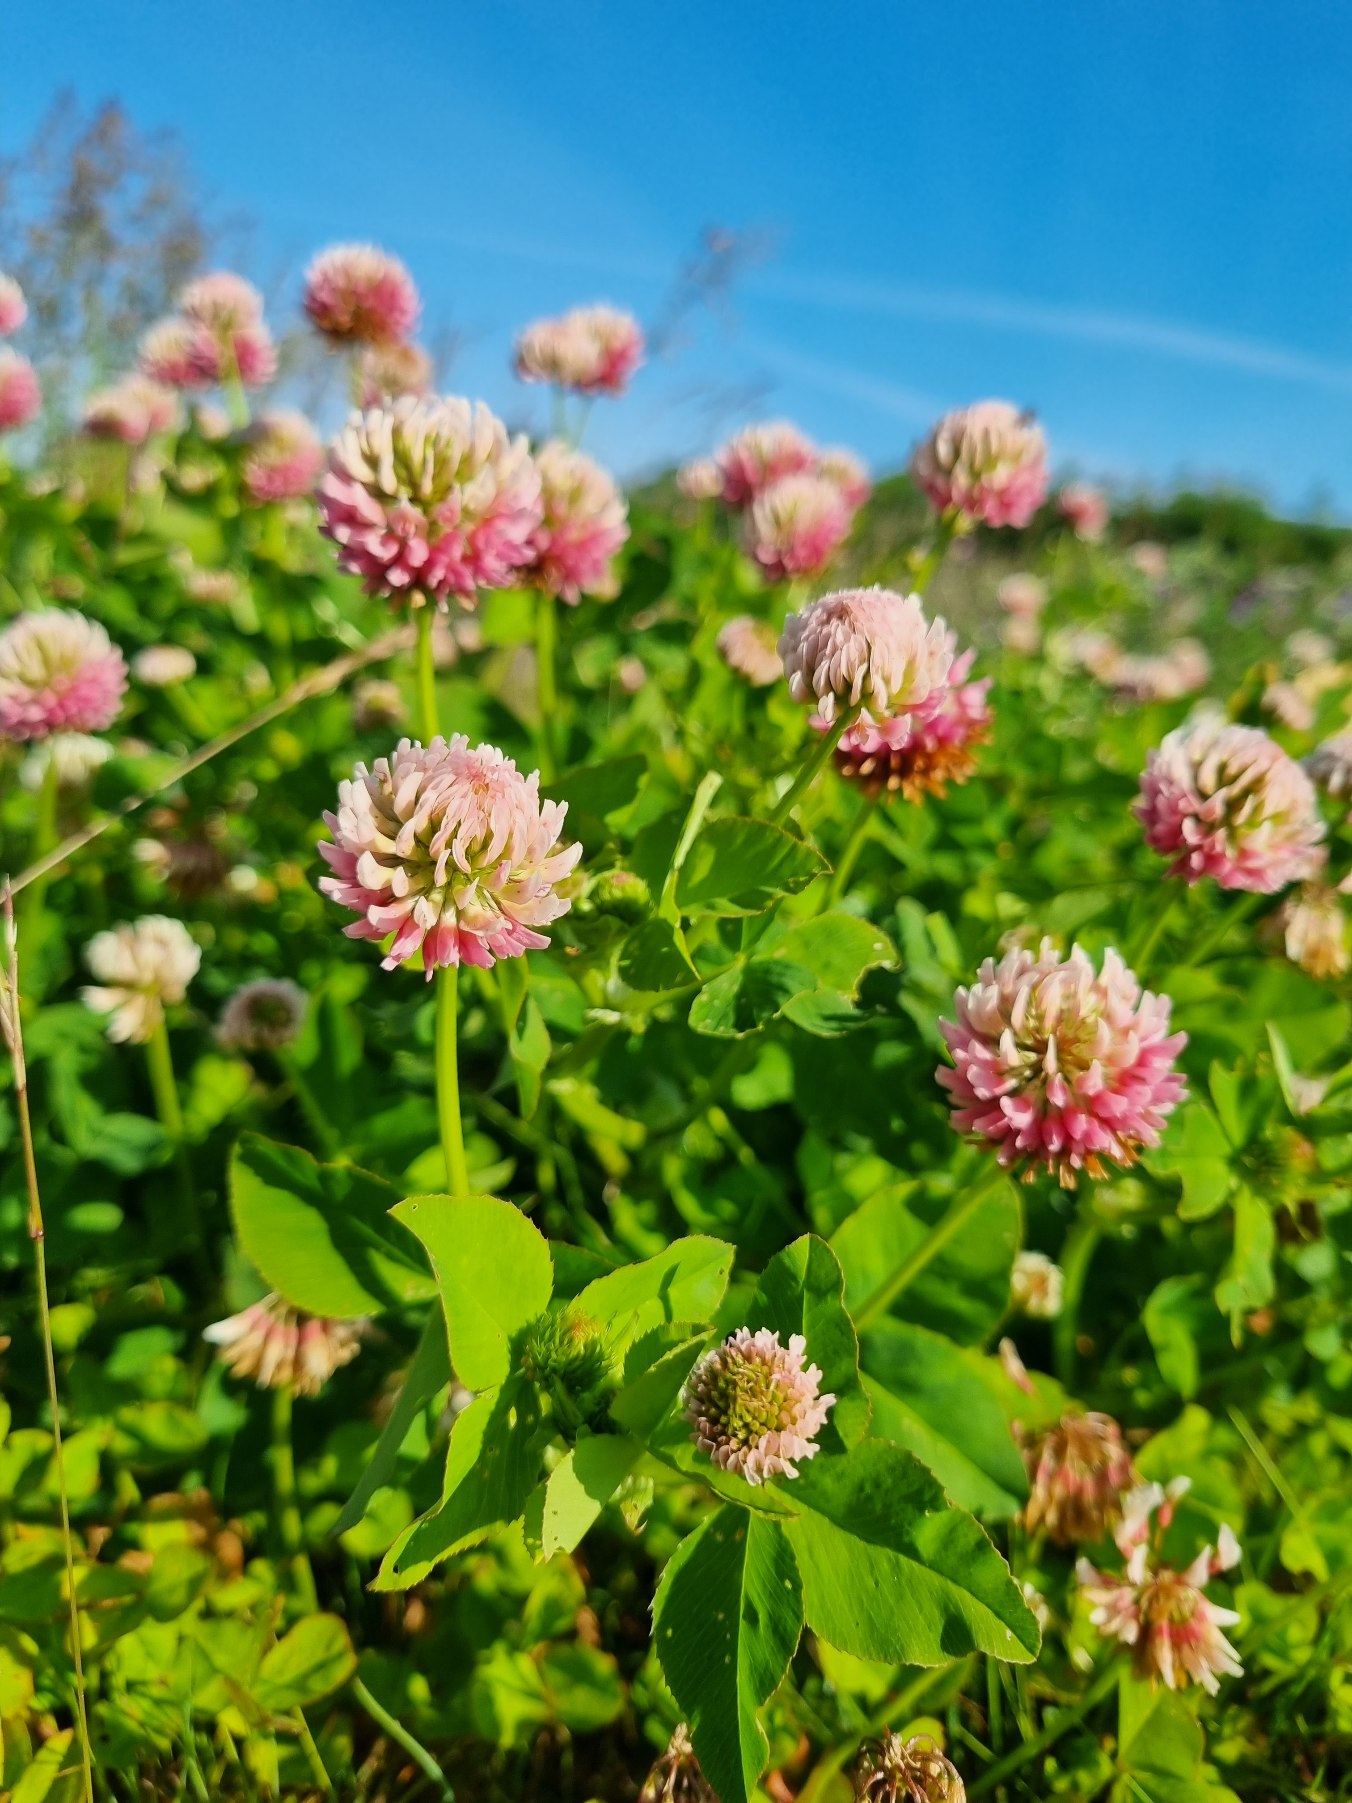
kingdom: Plantae
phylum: Tracheophyta
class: Magnoliopsida
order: Fabales
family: Fabaceae
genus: Trifolium
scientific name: Trifolium hybridum
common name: Alsike-kløver
